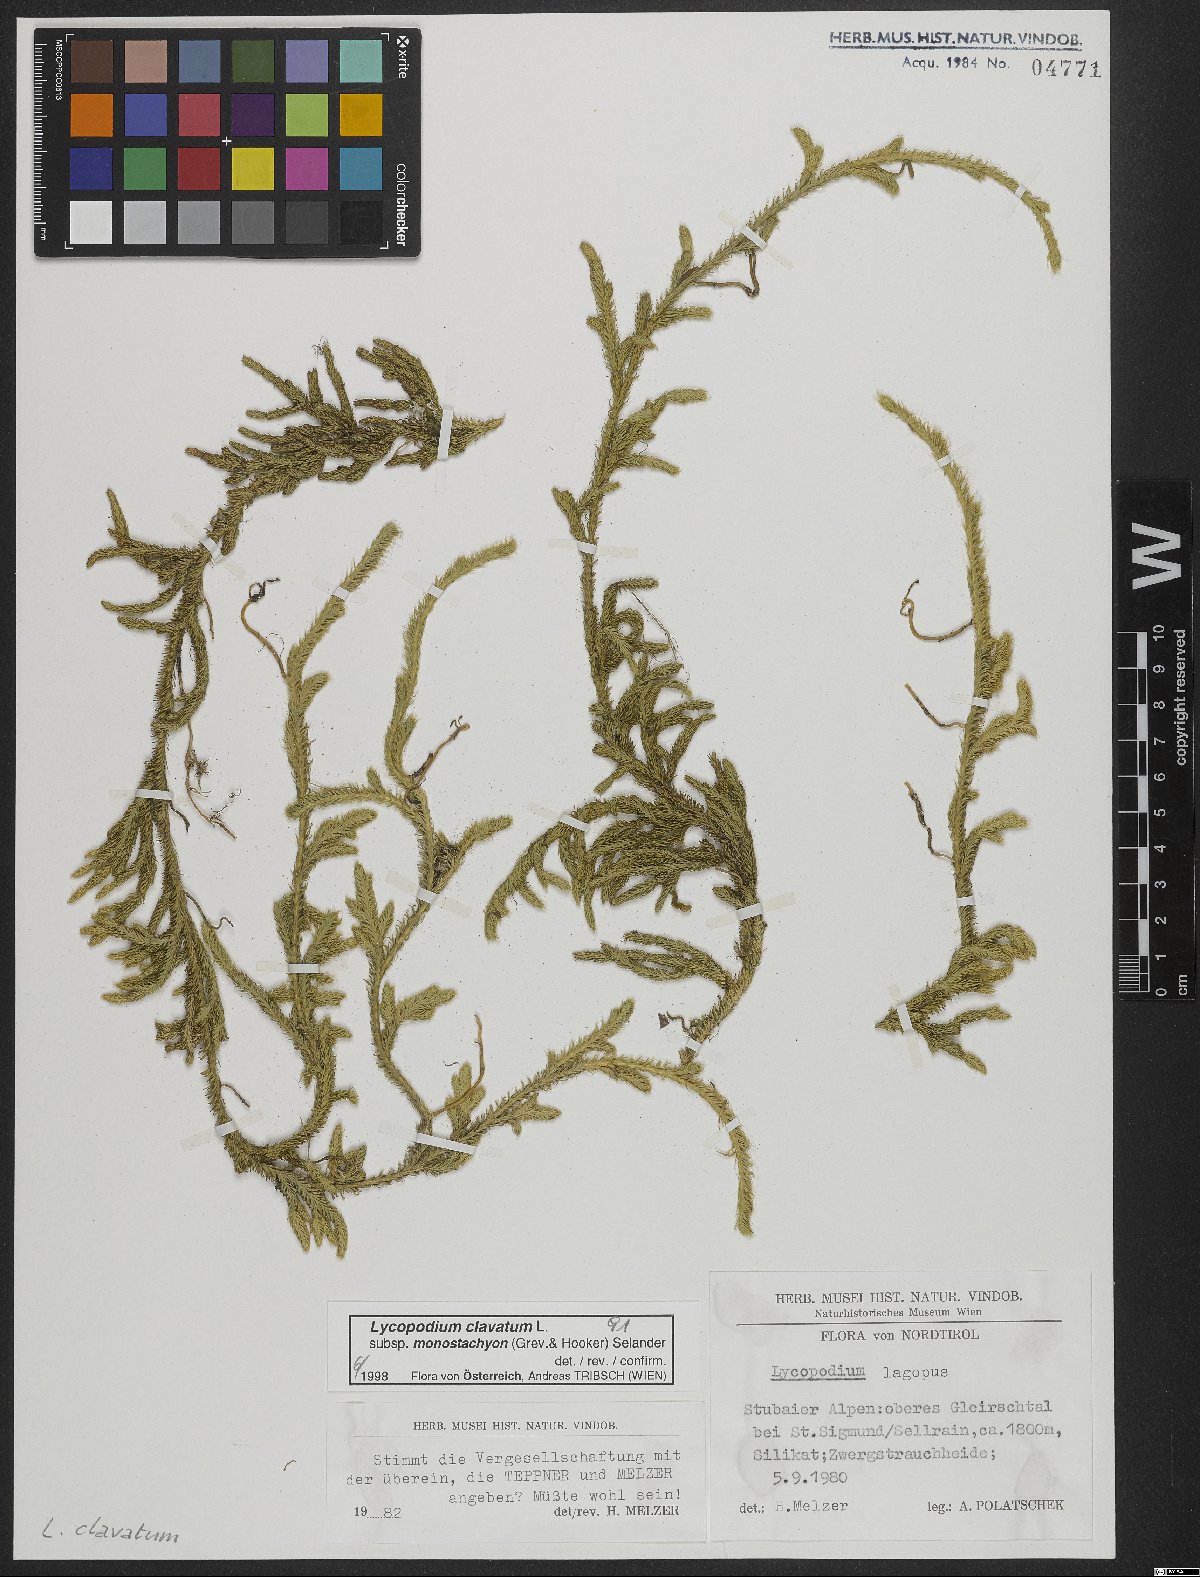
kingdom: Plantae
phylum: Tracheophyta
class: Lycopodiopsida
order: Lycopodiales
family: Lycopodiaceae
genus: Lycopodium
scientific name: Lycopodium lagopus
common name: One-cone clubmoss
